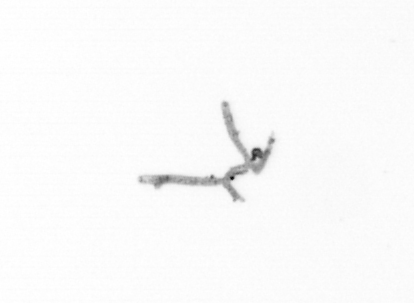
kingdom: Chromista
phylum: Ochrophyta
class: Bacillariophyceae
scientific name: Bacillariophyceae
